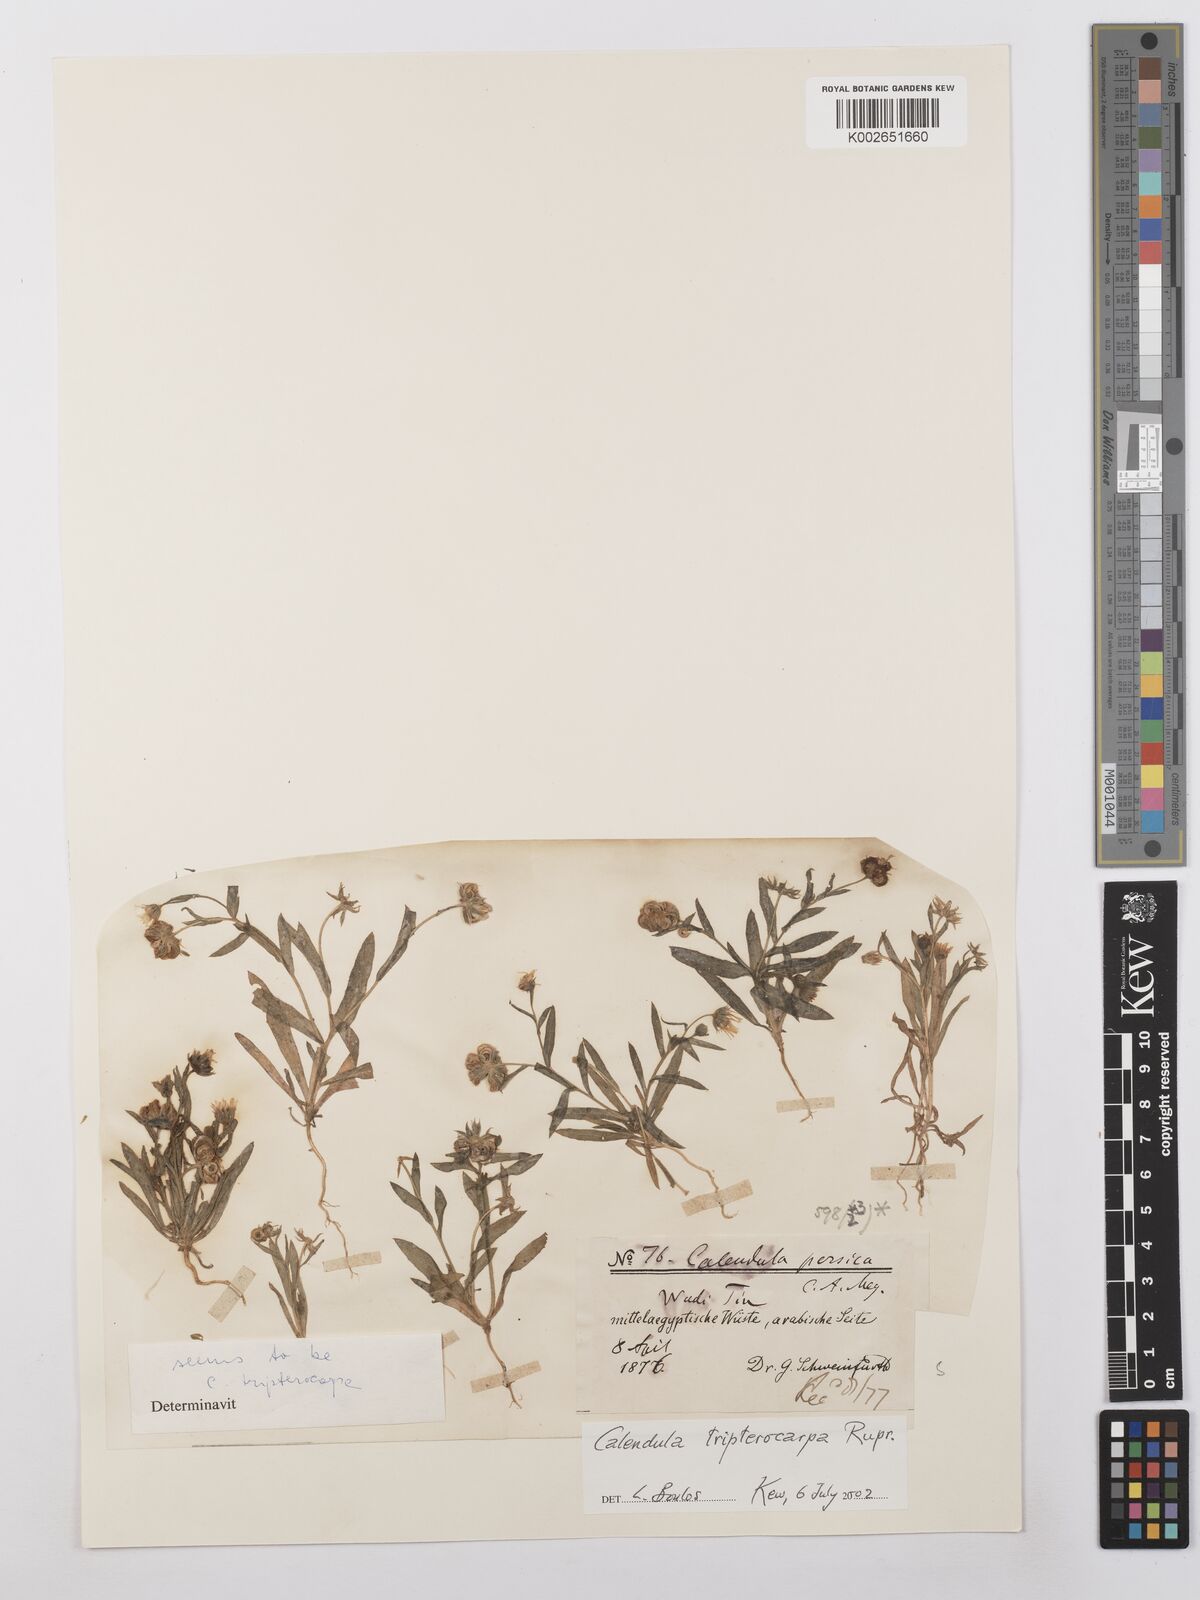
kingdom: Plantae
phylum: Tracheophyta
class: Magnoliopsida
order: Asterales
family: Asteraceae
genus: Calendula
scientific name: Calendula tripterocarpa
